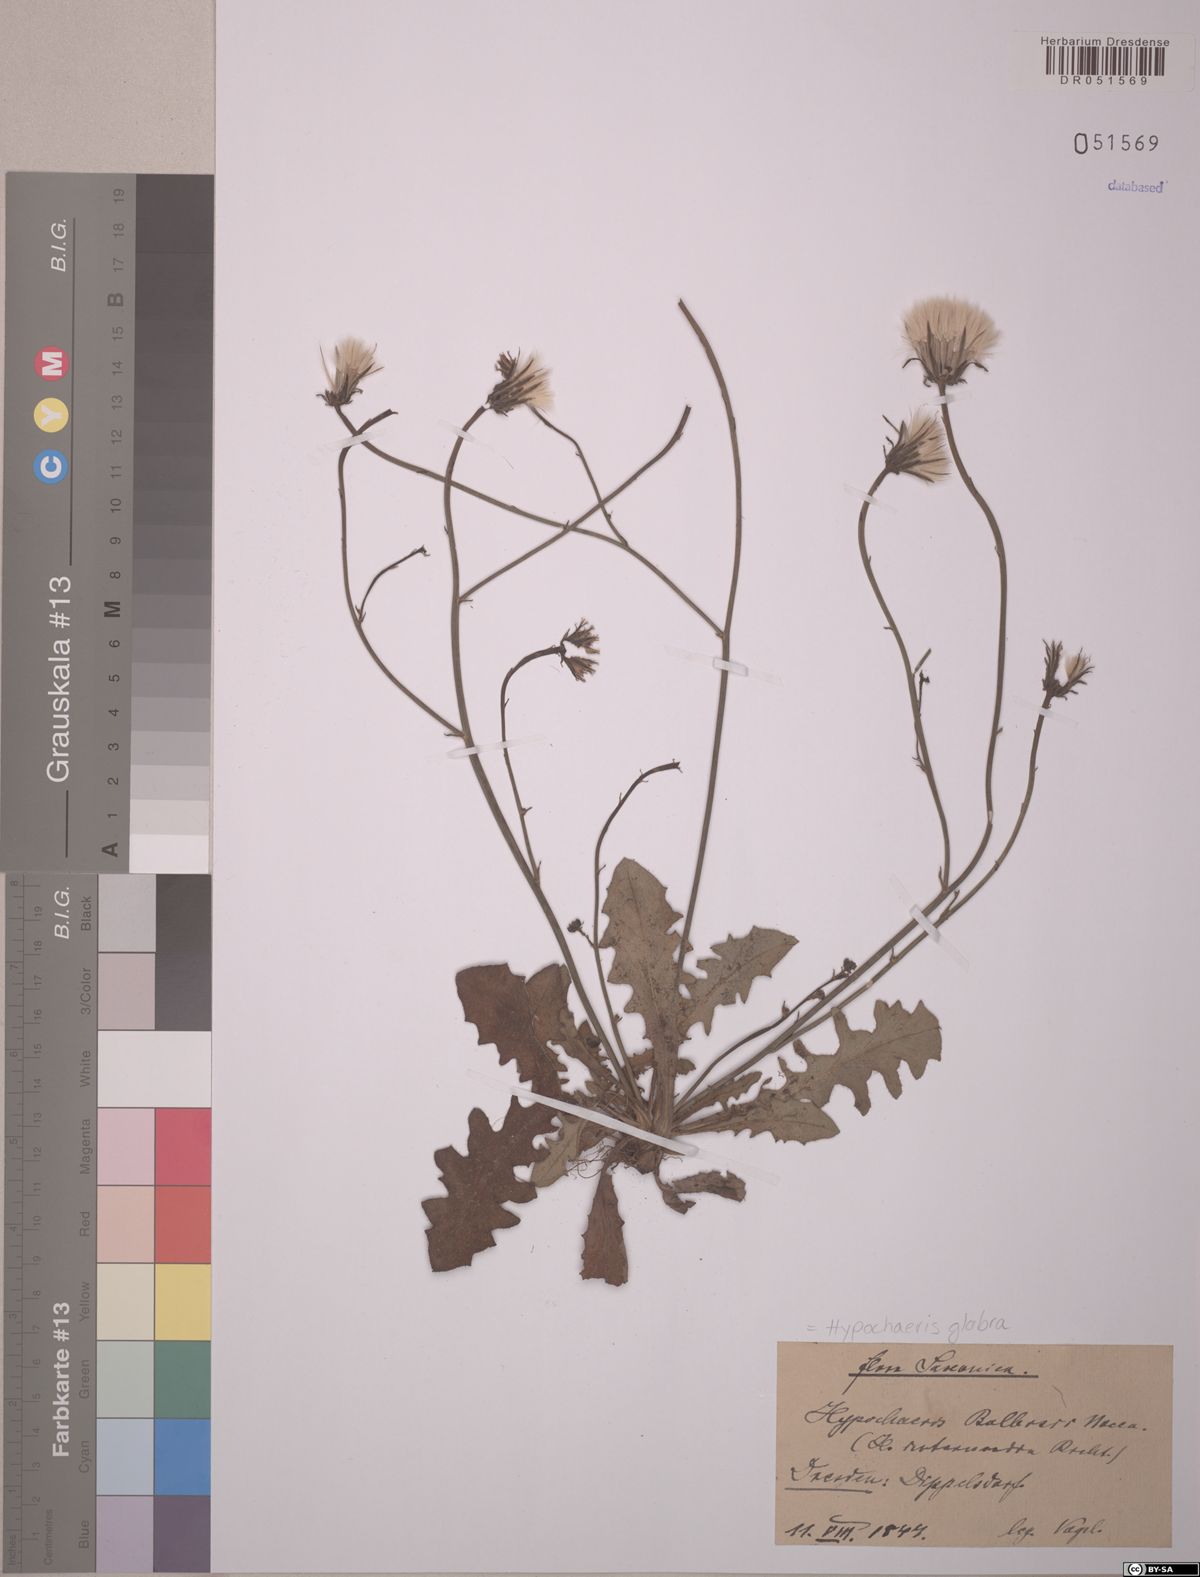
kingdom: Plantae
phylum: Tracheophyta
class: Magnoliopsida
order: Asterales
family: Asteraceae
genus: Hypochaeris
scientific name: Hypochaeris glabra
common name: Smooth catsear
